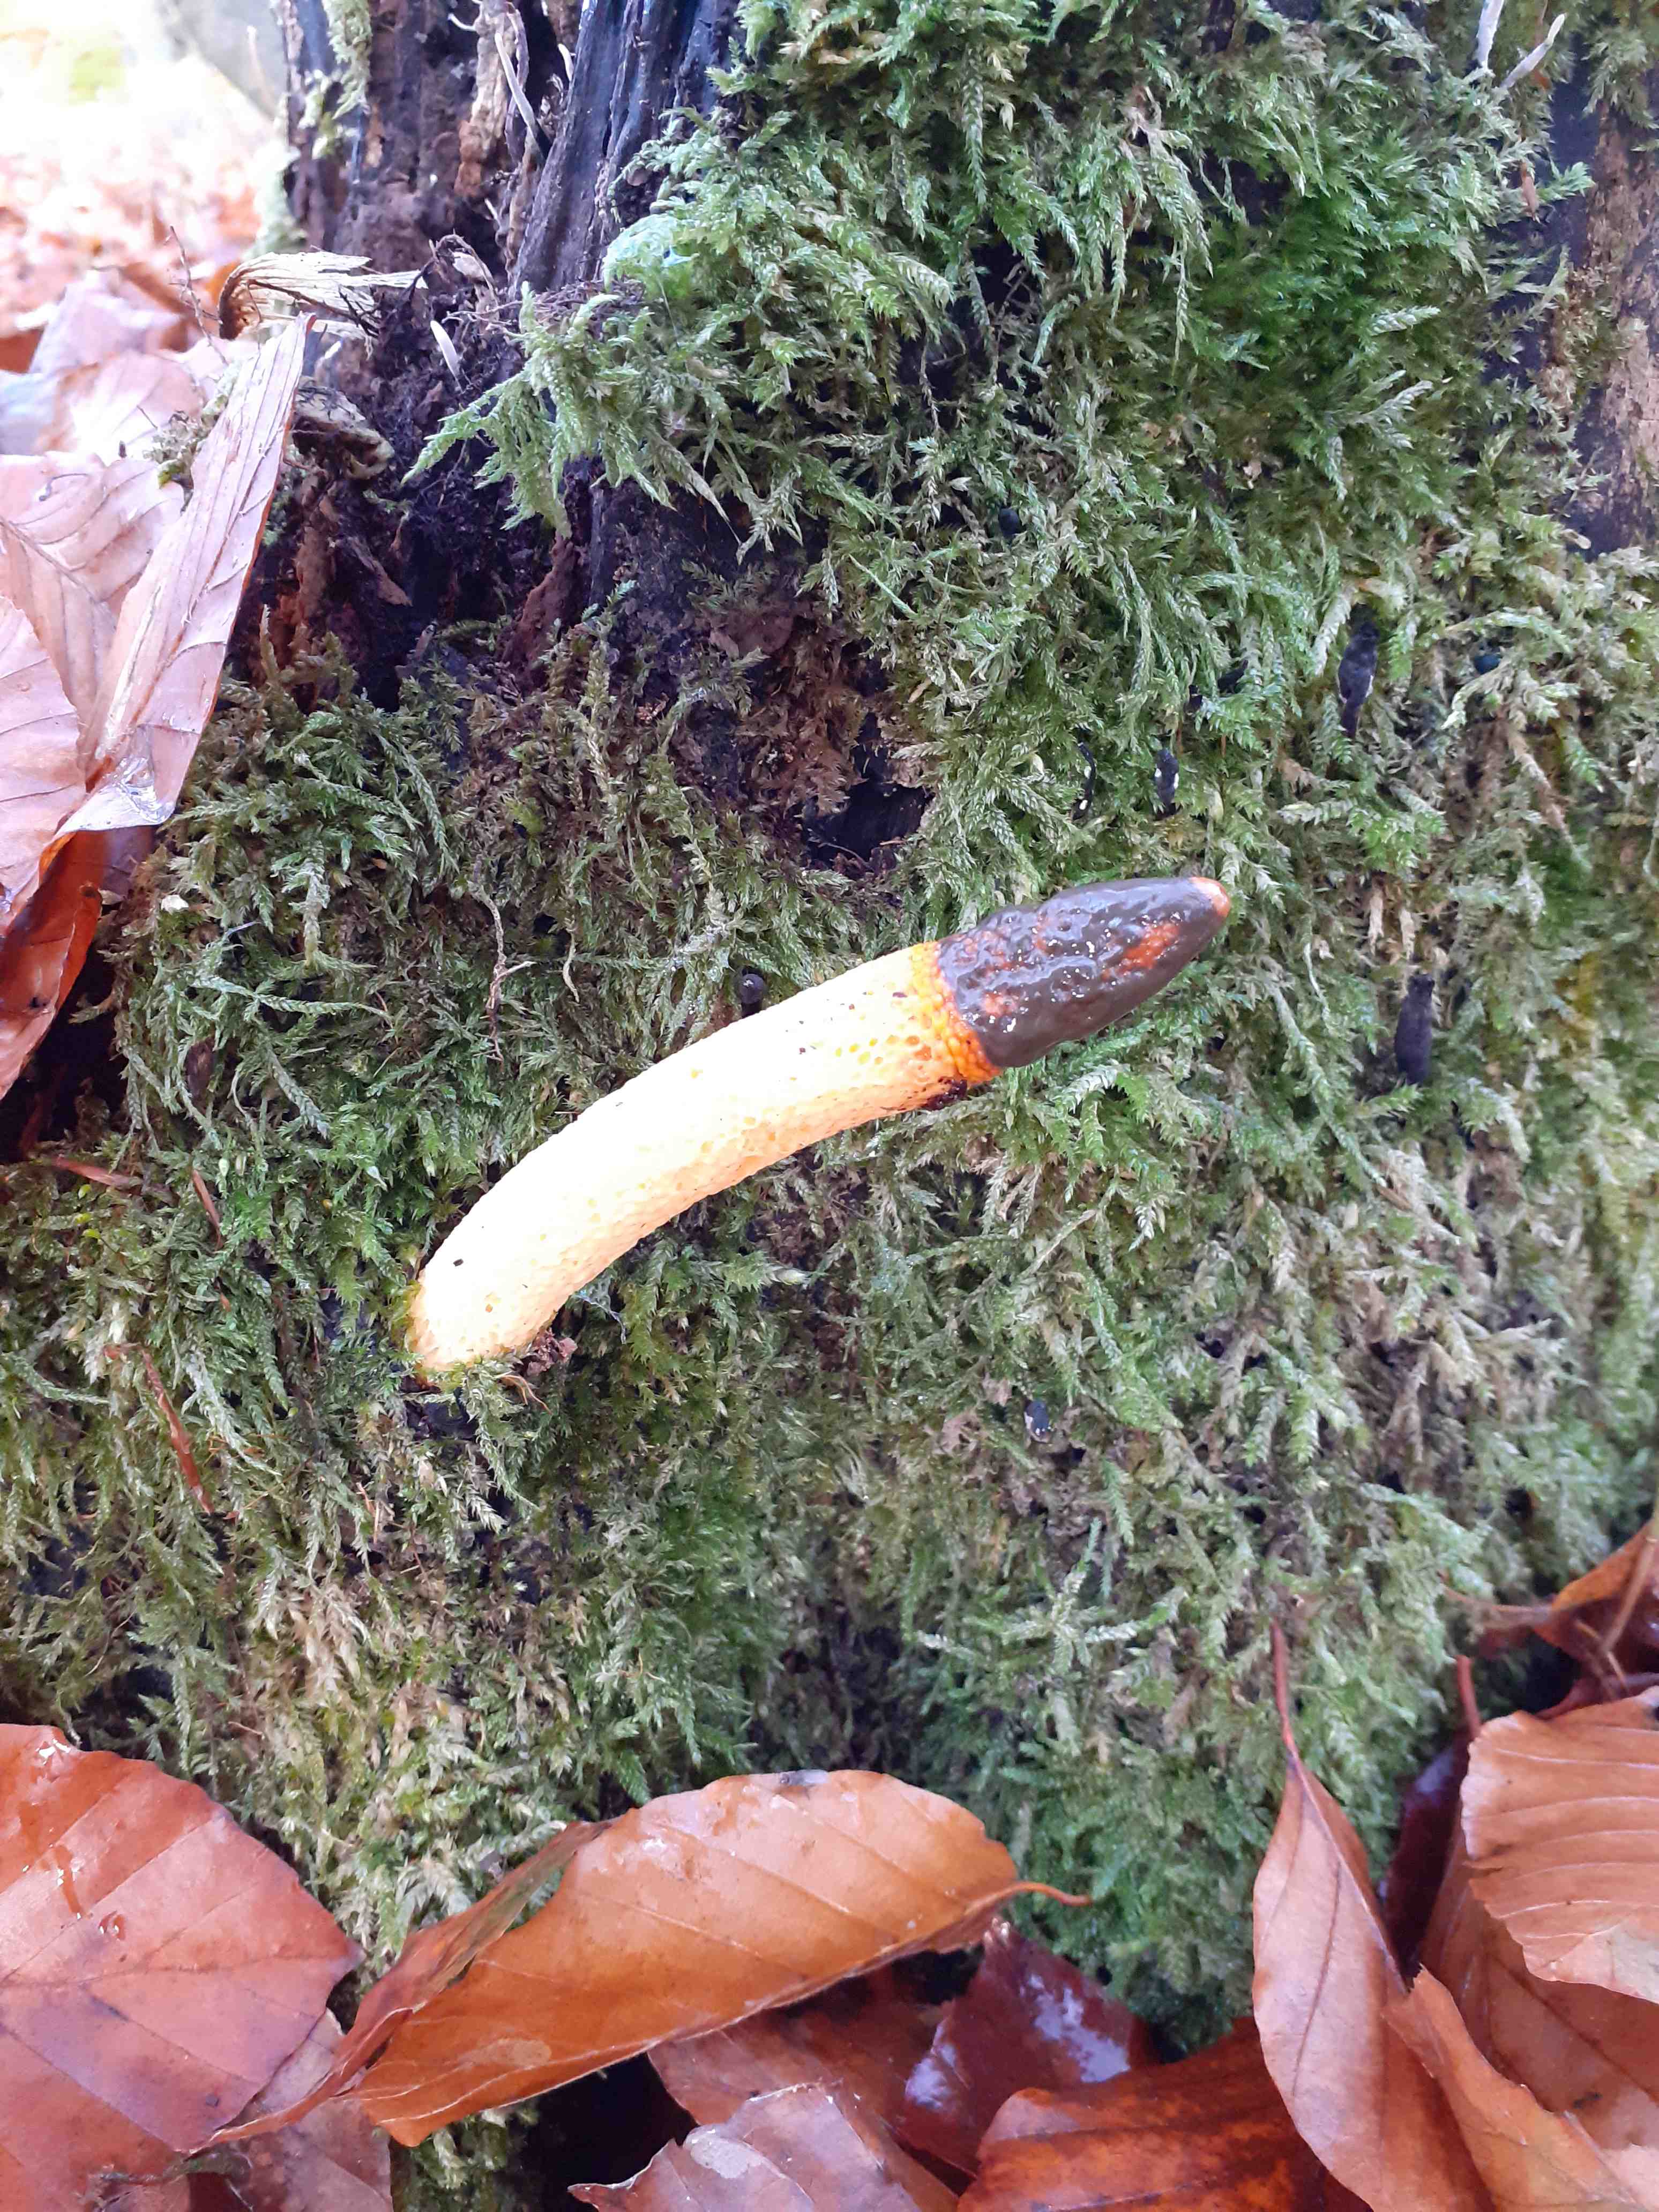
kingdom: Fungi
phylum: Basidiomycota
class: Agaricomycetes
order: Phallales
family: Phallaceae
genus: Mutinus
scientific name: Mutinus caninus
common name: hunde-stinksvamp
